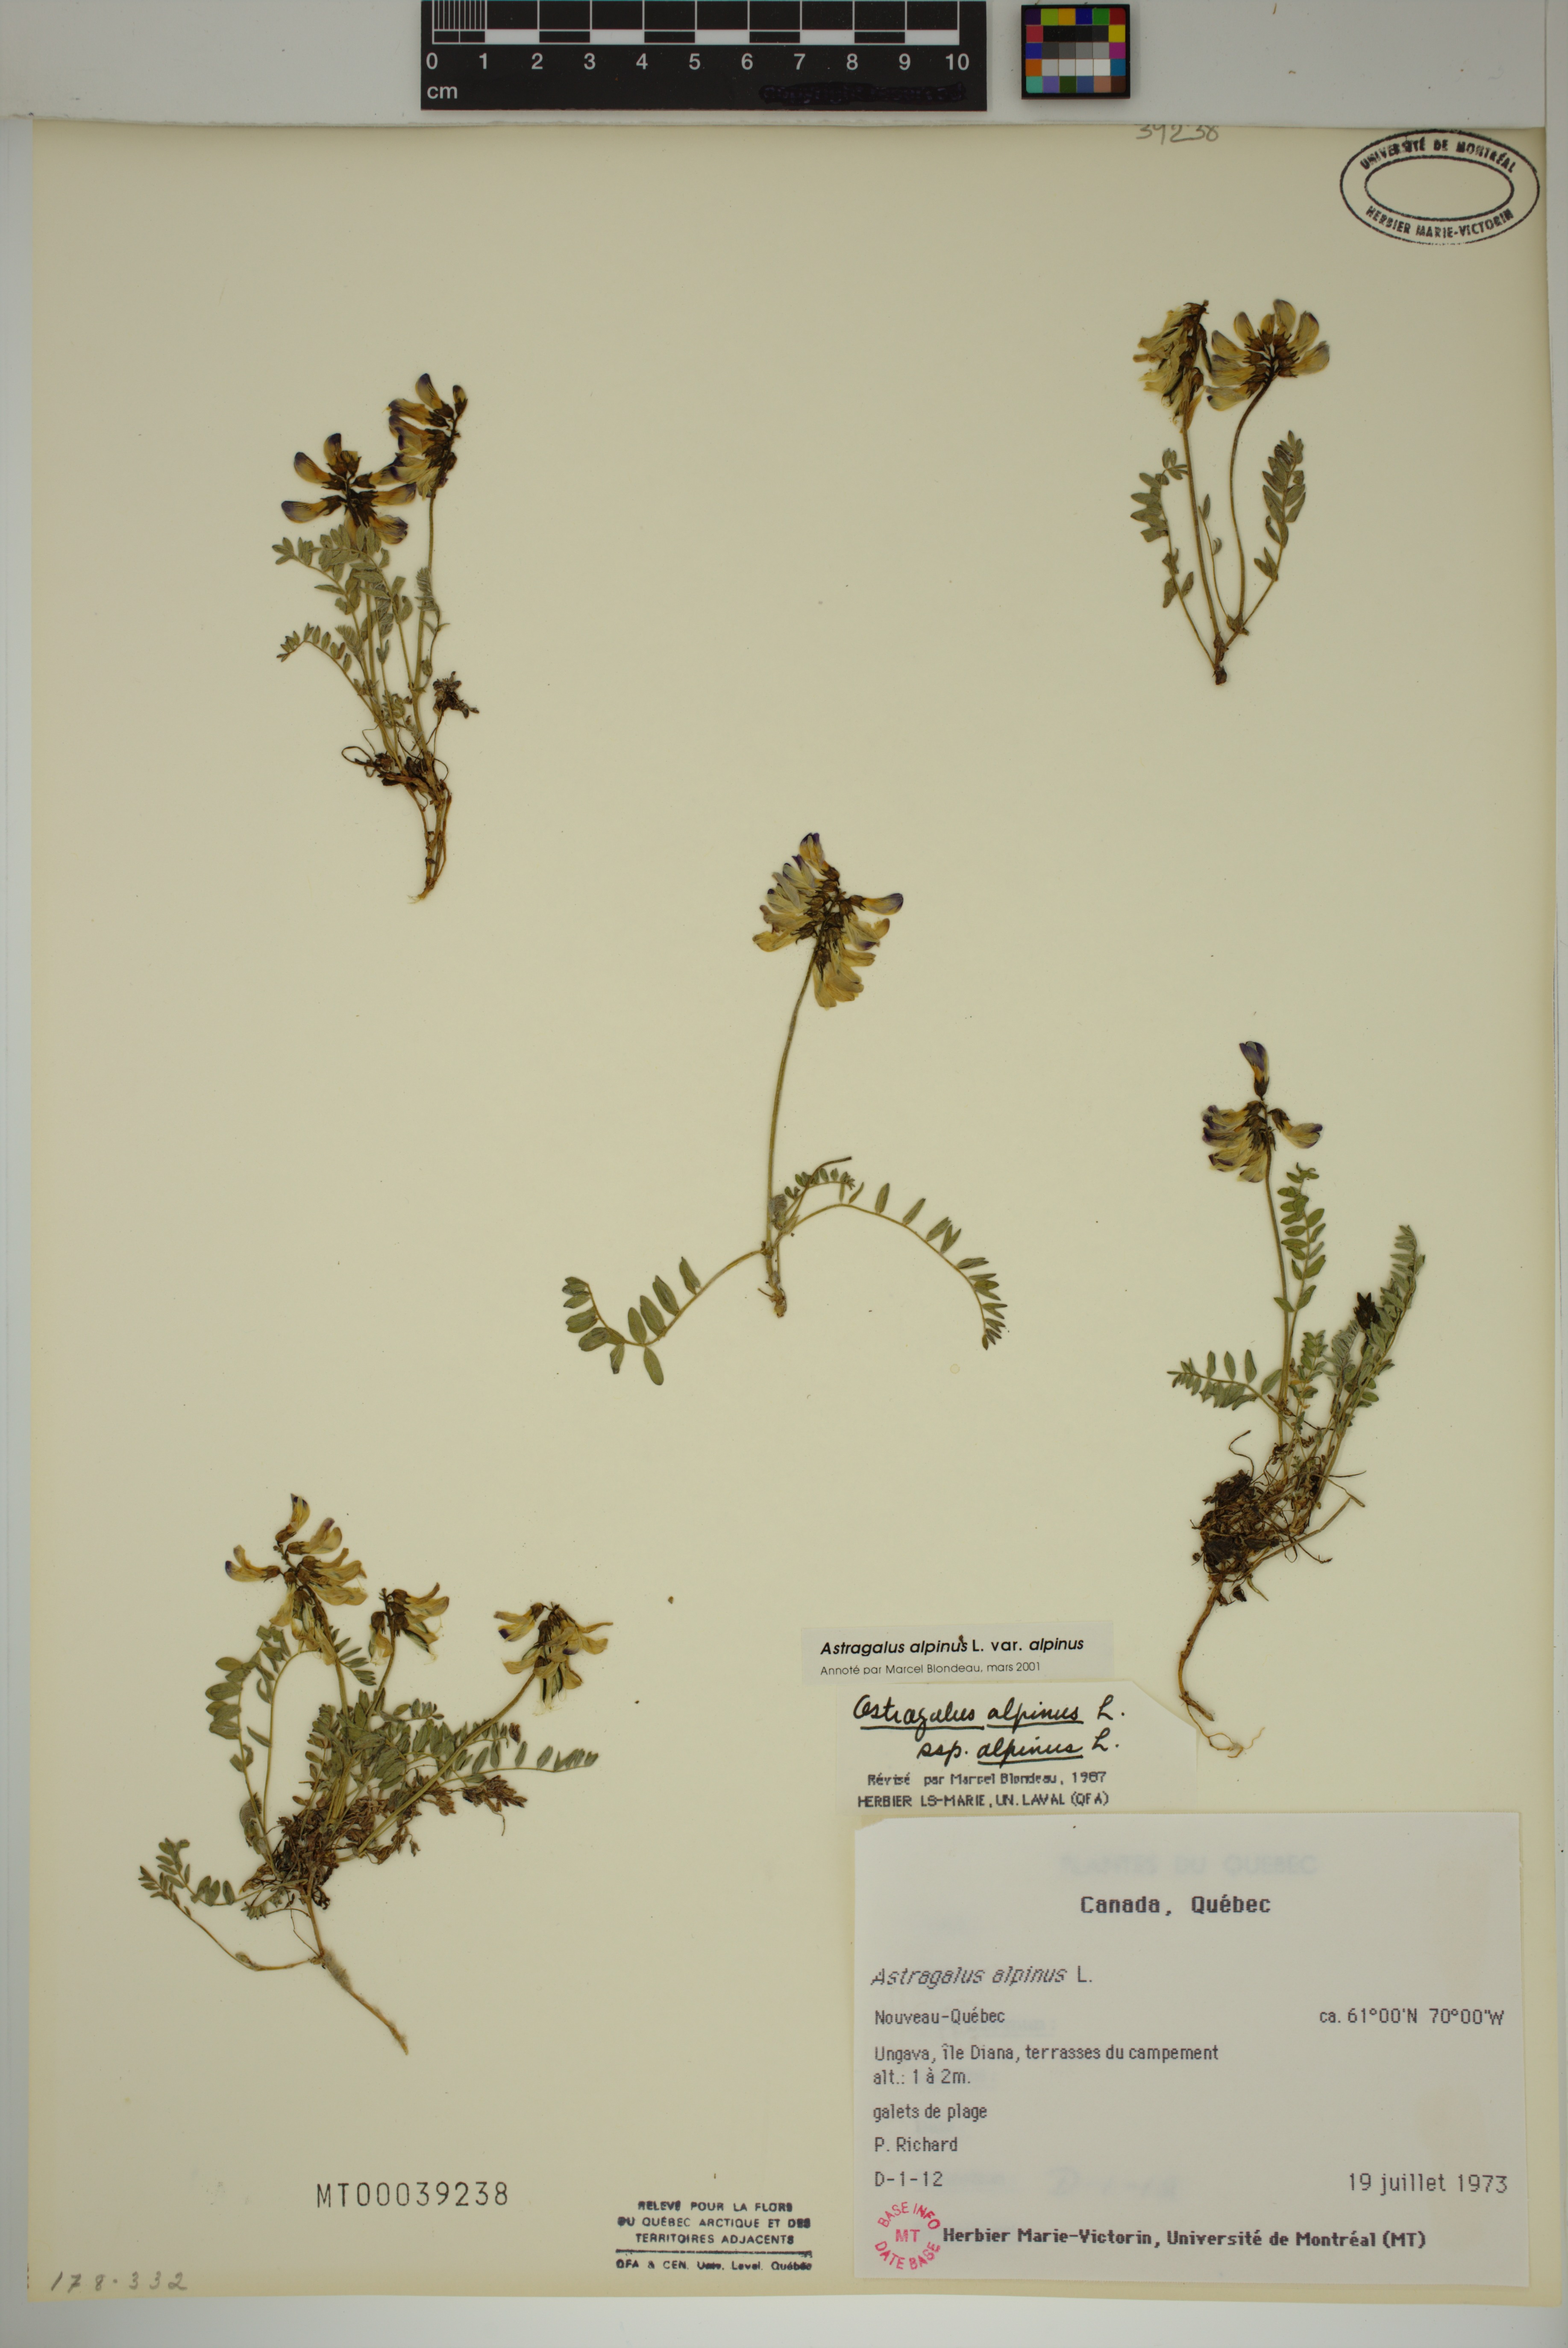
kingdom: Plantae
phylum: Tracheophyta
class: Magnoliopsida
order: Fabales
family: Fabaceae
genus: Astragalus
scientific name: Astragalus alpinus
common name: Alpine milk-vetch
